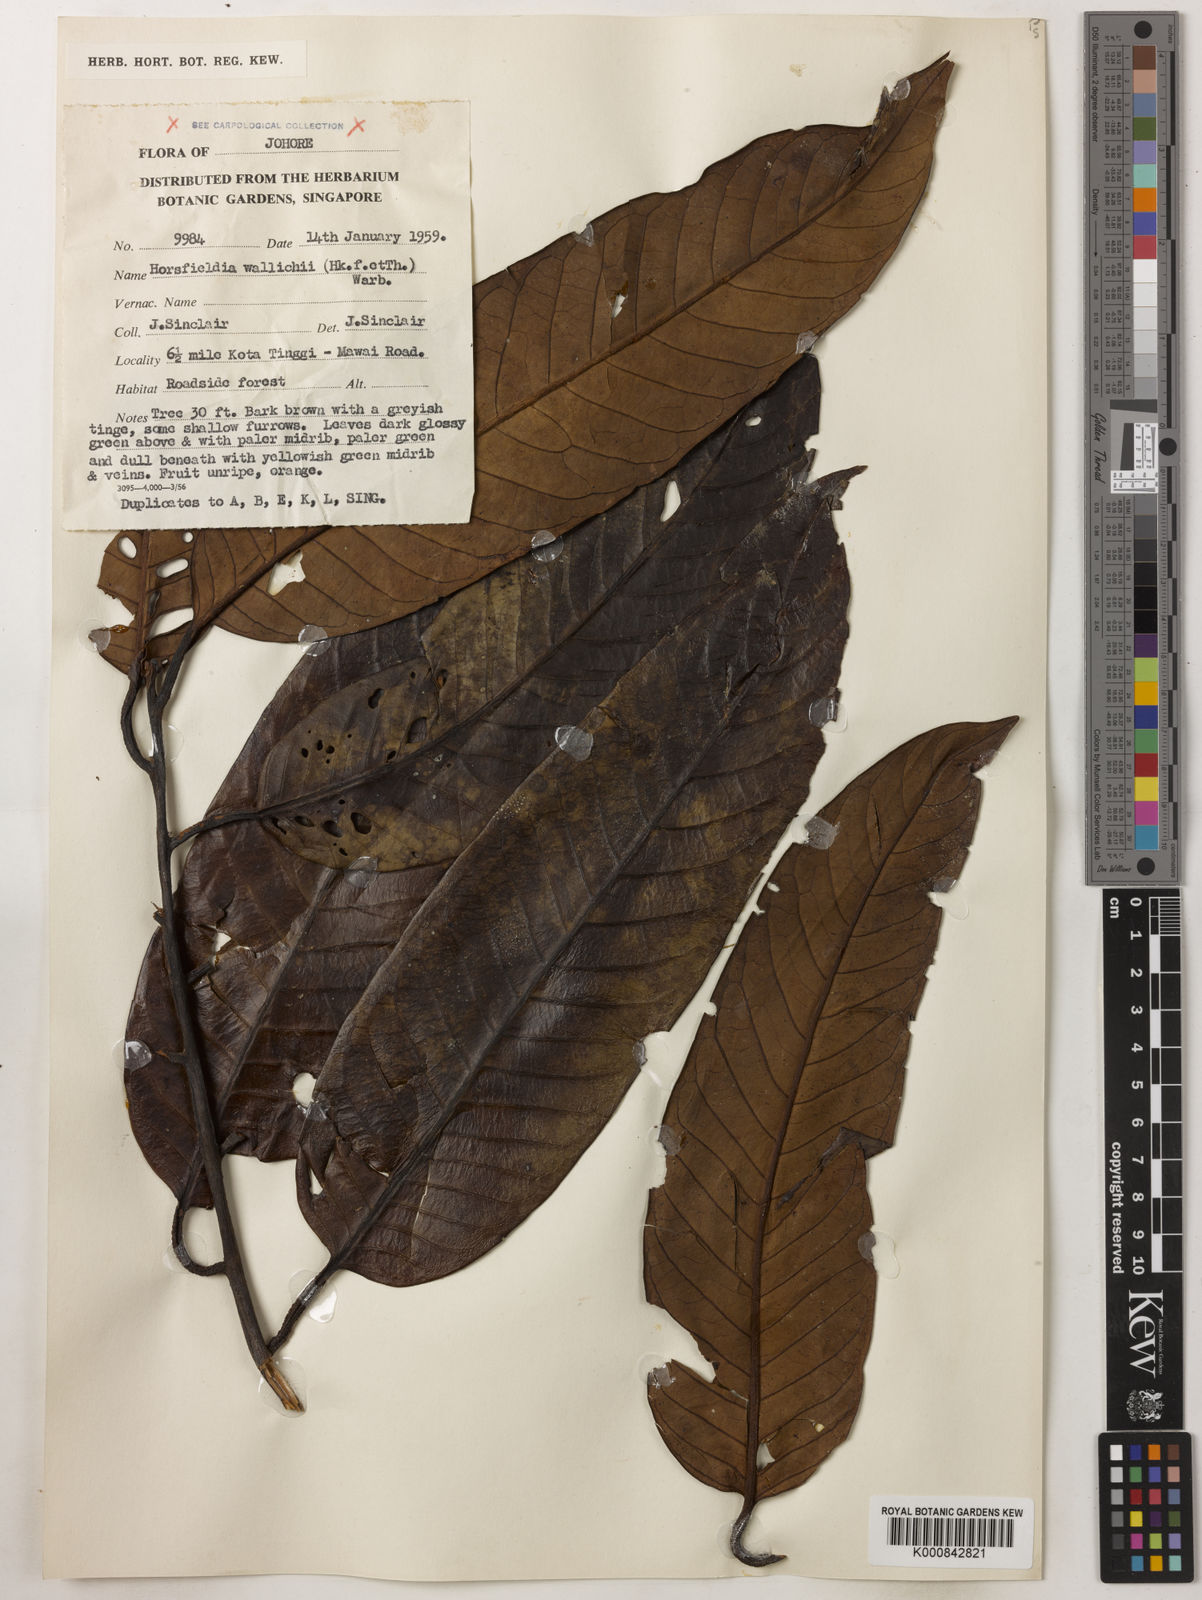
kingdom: Plantae
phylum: Tracheophyta
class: Magnoliopsida
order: Magnoliales
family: Myristicaceae
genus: Horsfieldia
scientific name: Horsfieldia wallichii
